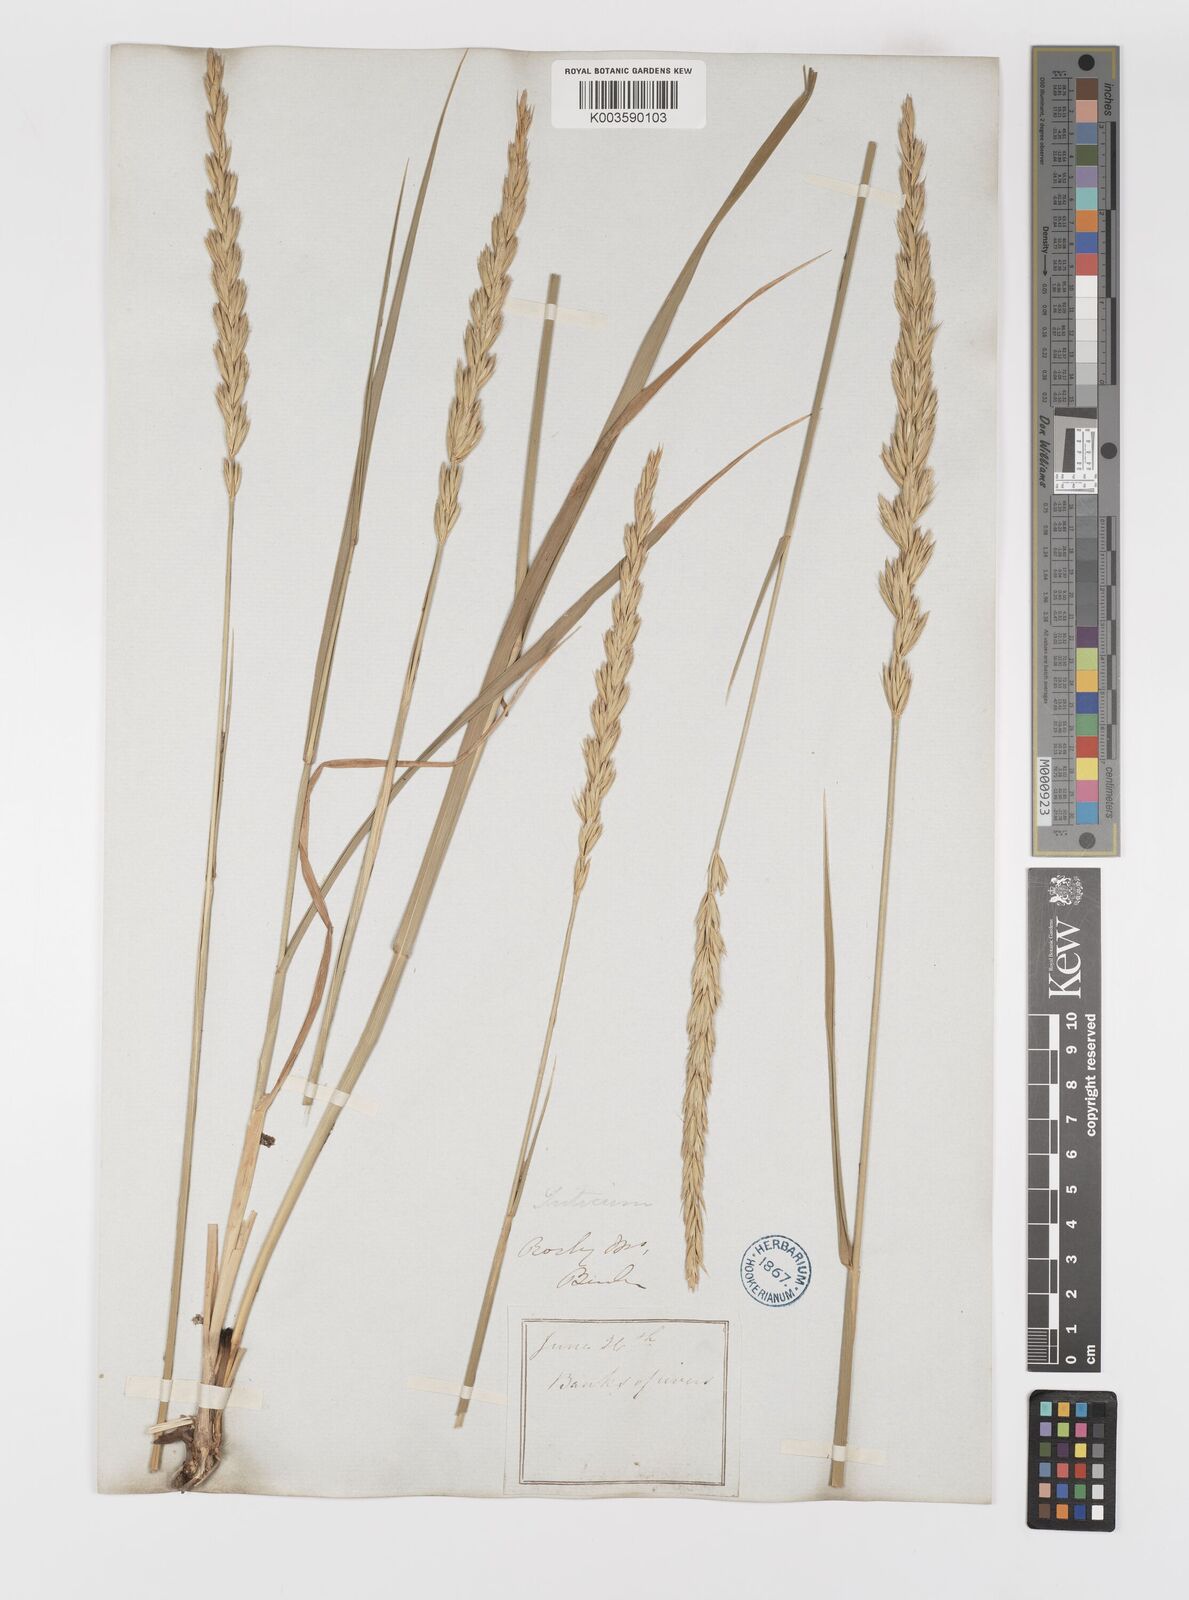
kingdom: Plantae
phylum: Tracheophyta
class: Liliopsida
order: Poales
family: Poaceae
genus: Elymus
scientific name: Elymus repens
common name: Quackgrass
